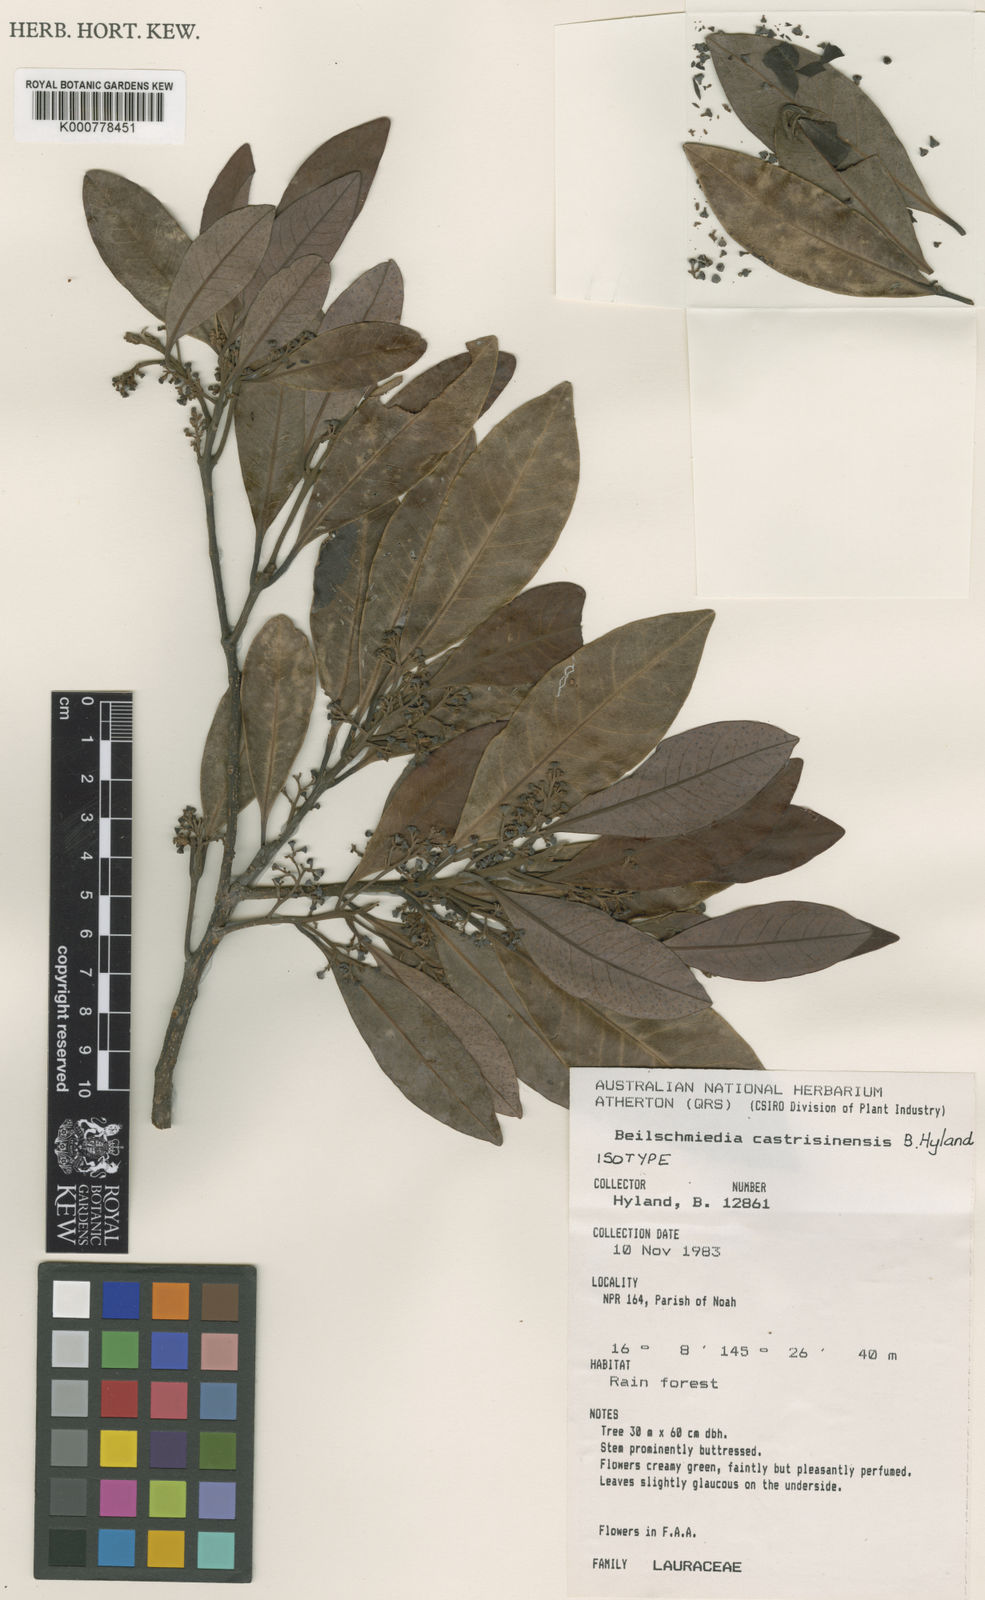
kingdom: Plantae
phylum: Tracheophyta
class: Magnoliopsida
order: Laurales
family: Lauraceae
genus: Beilschmiedia
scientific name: Beilschmiedia castrisinensis
